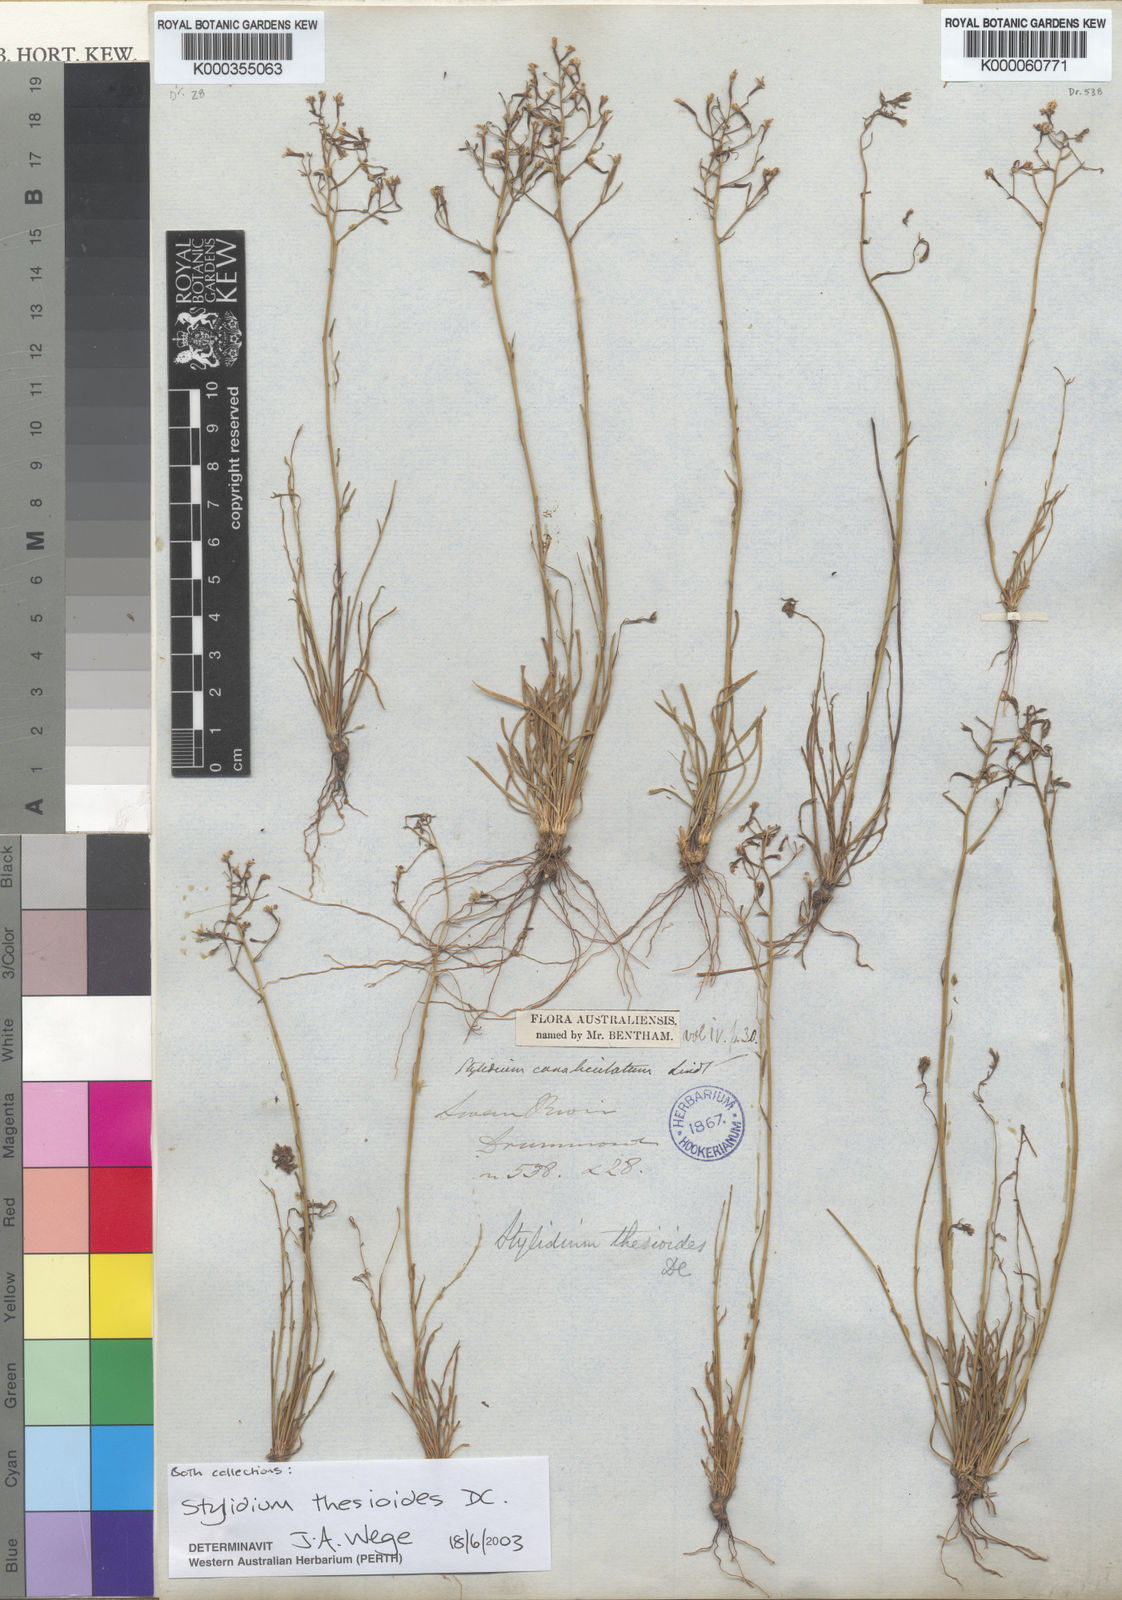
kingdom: Plantae
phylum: Tracheophyta
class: Magnoliopsida
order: Asterales
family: Stylidiaceae
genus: Stylidium
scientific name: Stylidium thesioides
